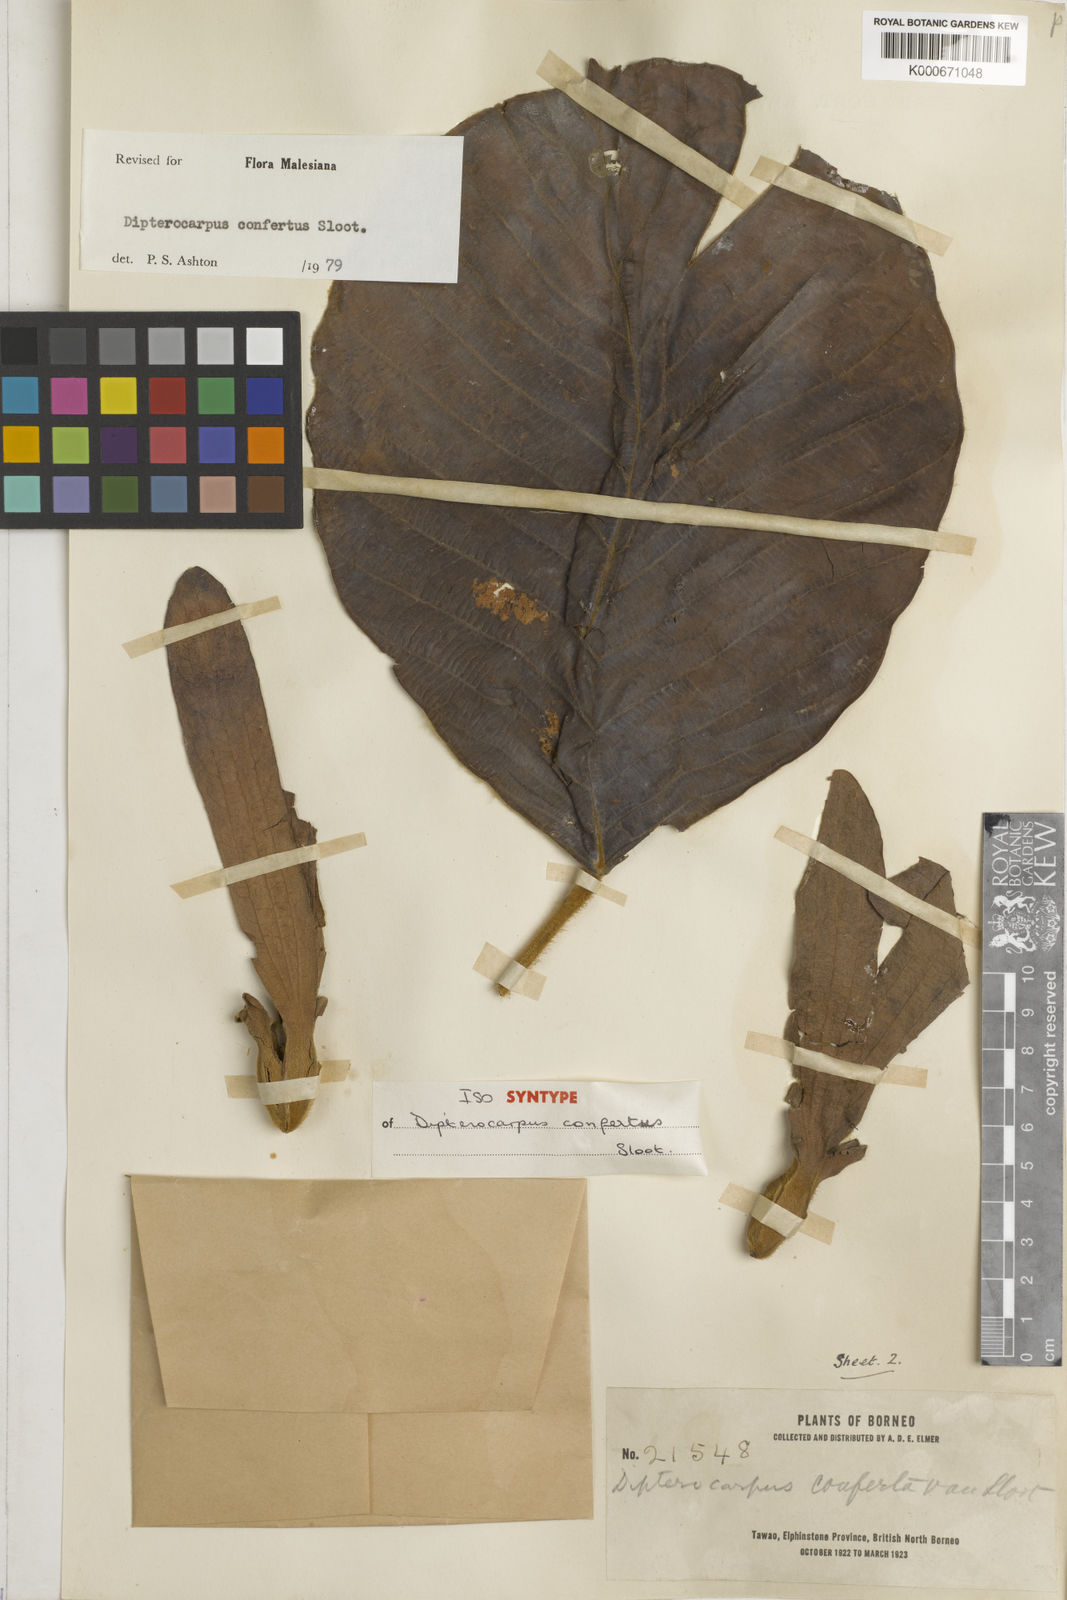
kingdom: Plantae
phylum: Tracheophyta
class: Magnoliopsida
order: Malvales
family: Dipterocarpaceae
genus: Dipterocarpus
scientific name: Dipterocarpus confertus
